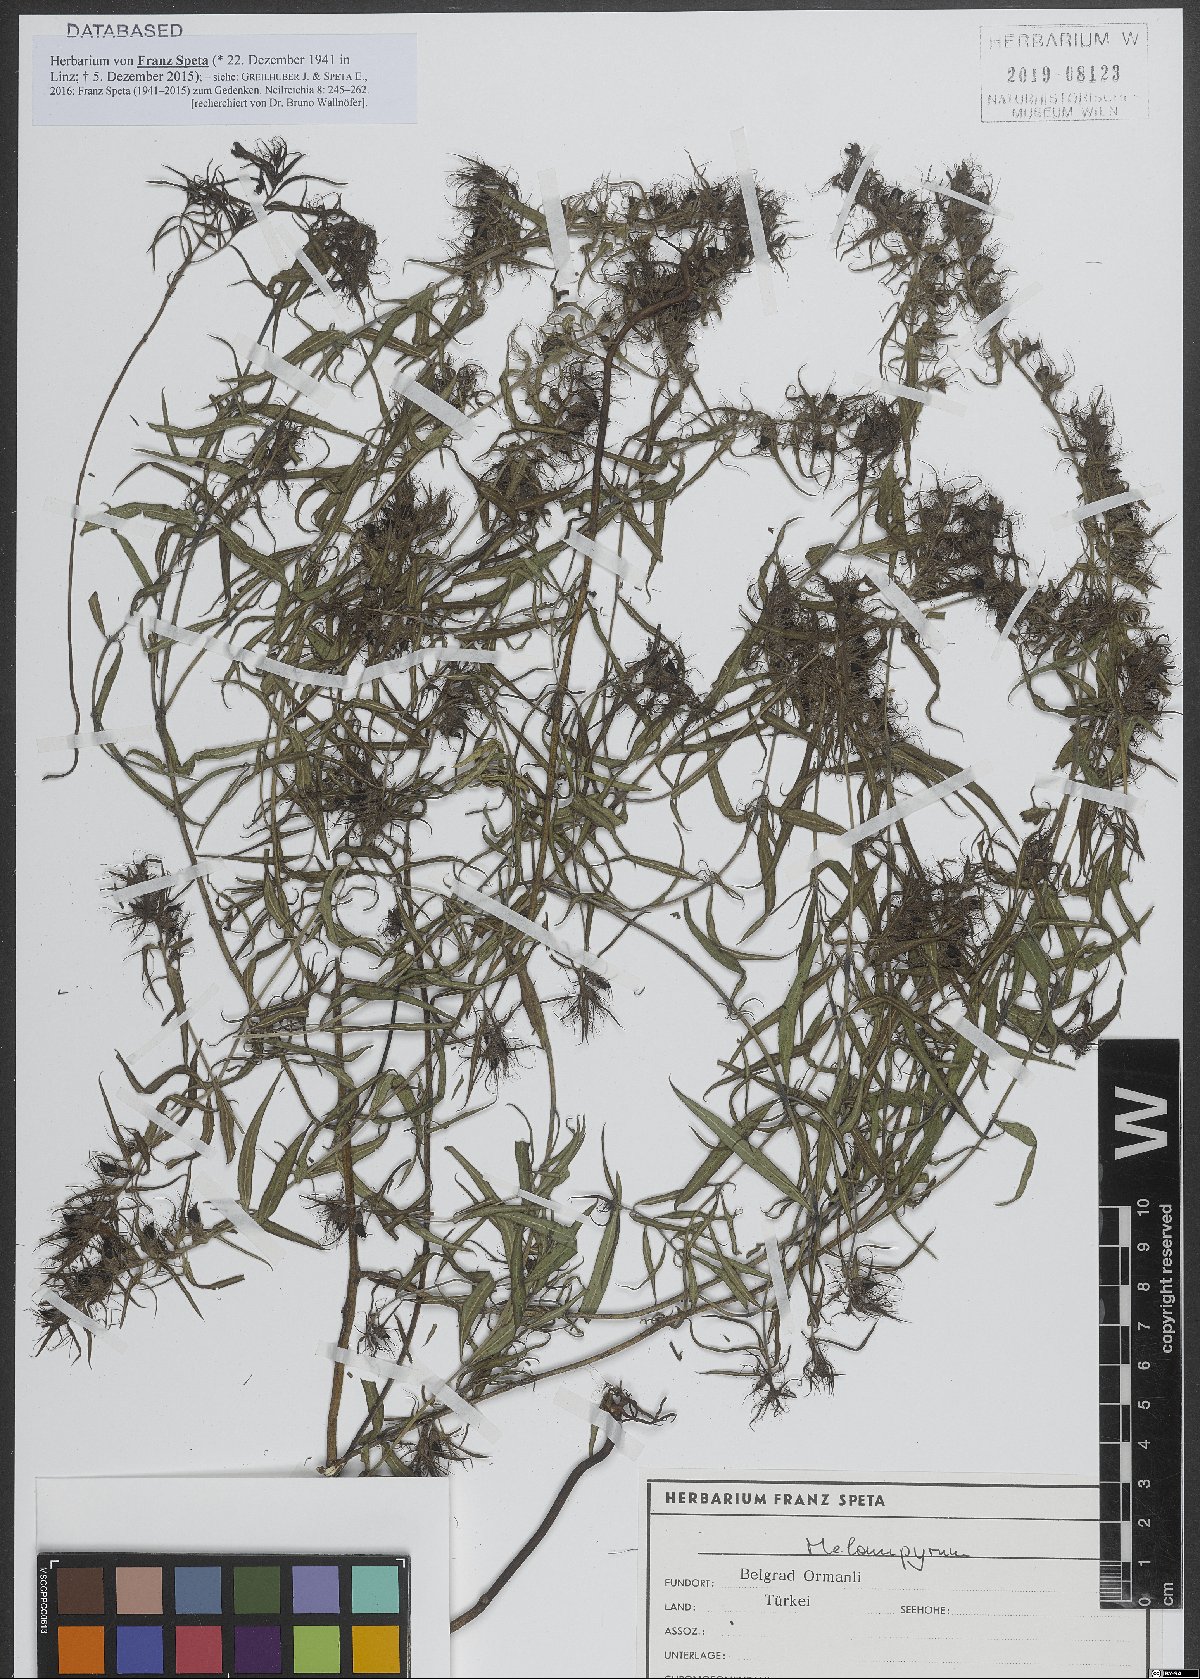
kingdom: Plantae
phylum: Tracheophyta
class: Magnoliopsida
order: Lamiales
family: Orobanchaceae
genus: Melampyrum
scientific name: Melampyrum
